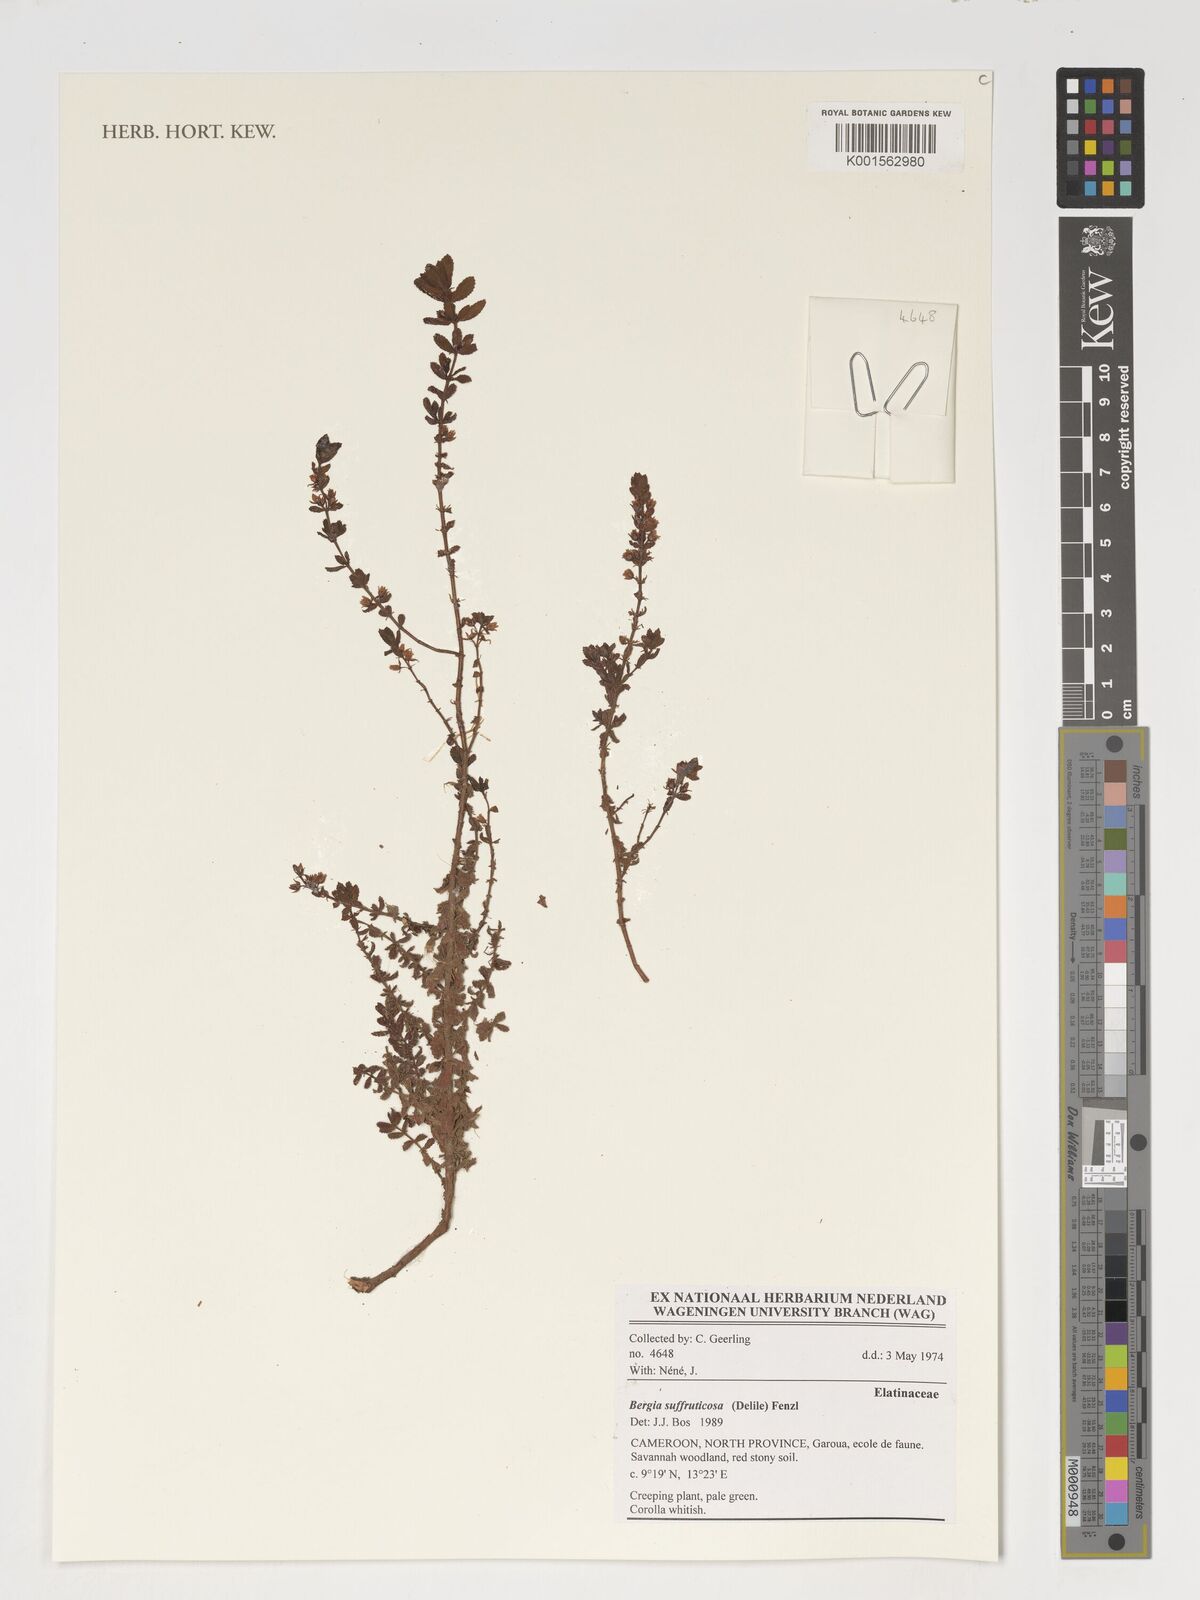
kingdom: Plantae
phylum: Tracheophyta
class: Magnoliopsida
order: Malpighiales
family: Elatinaceae
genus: Bergia
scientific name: Bergia suffruticosa
